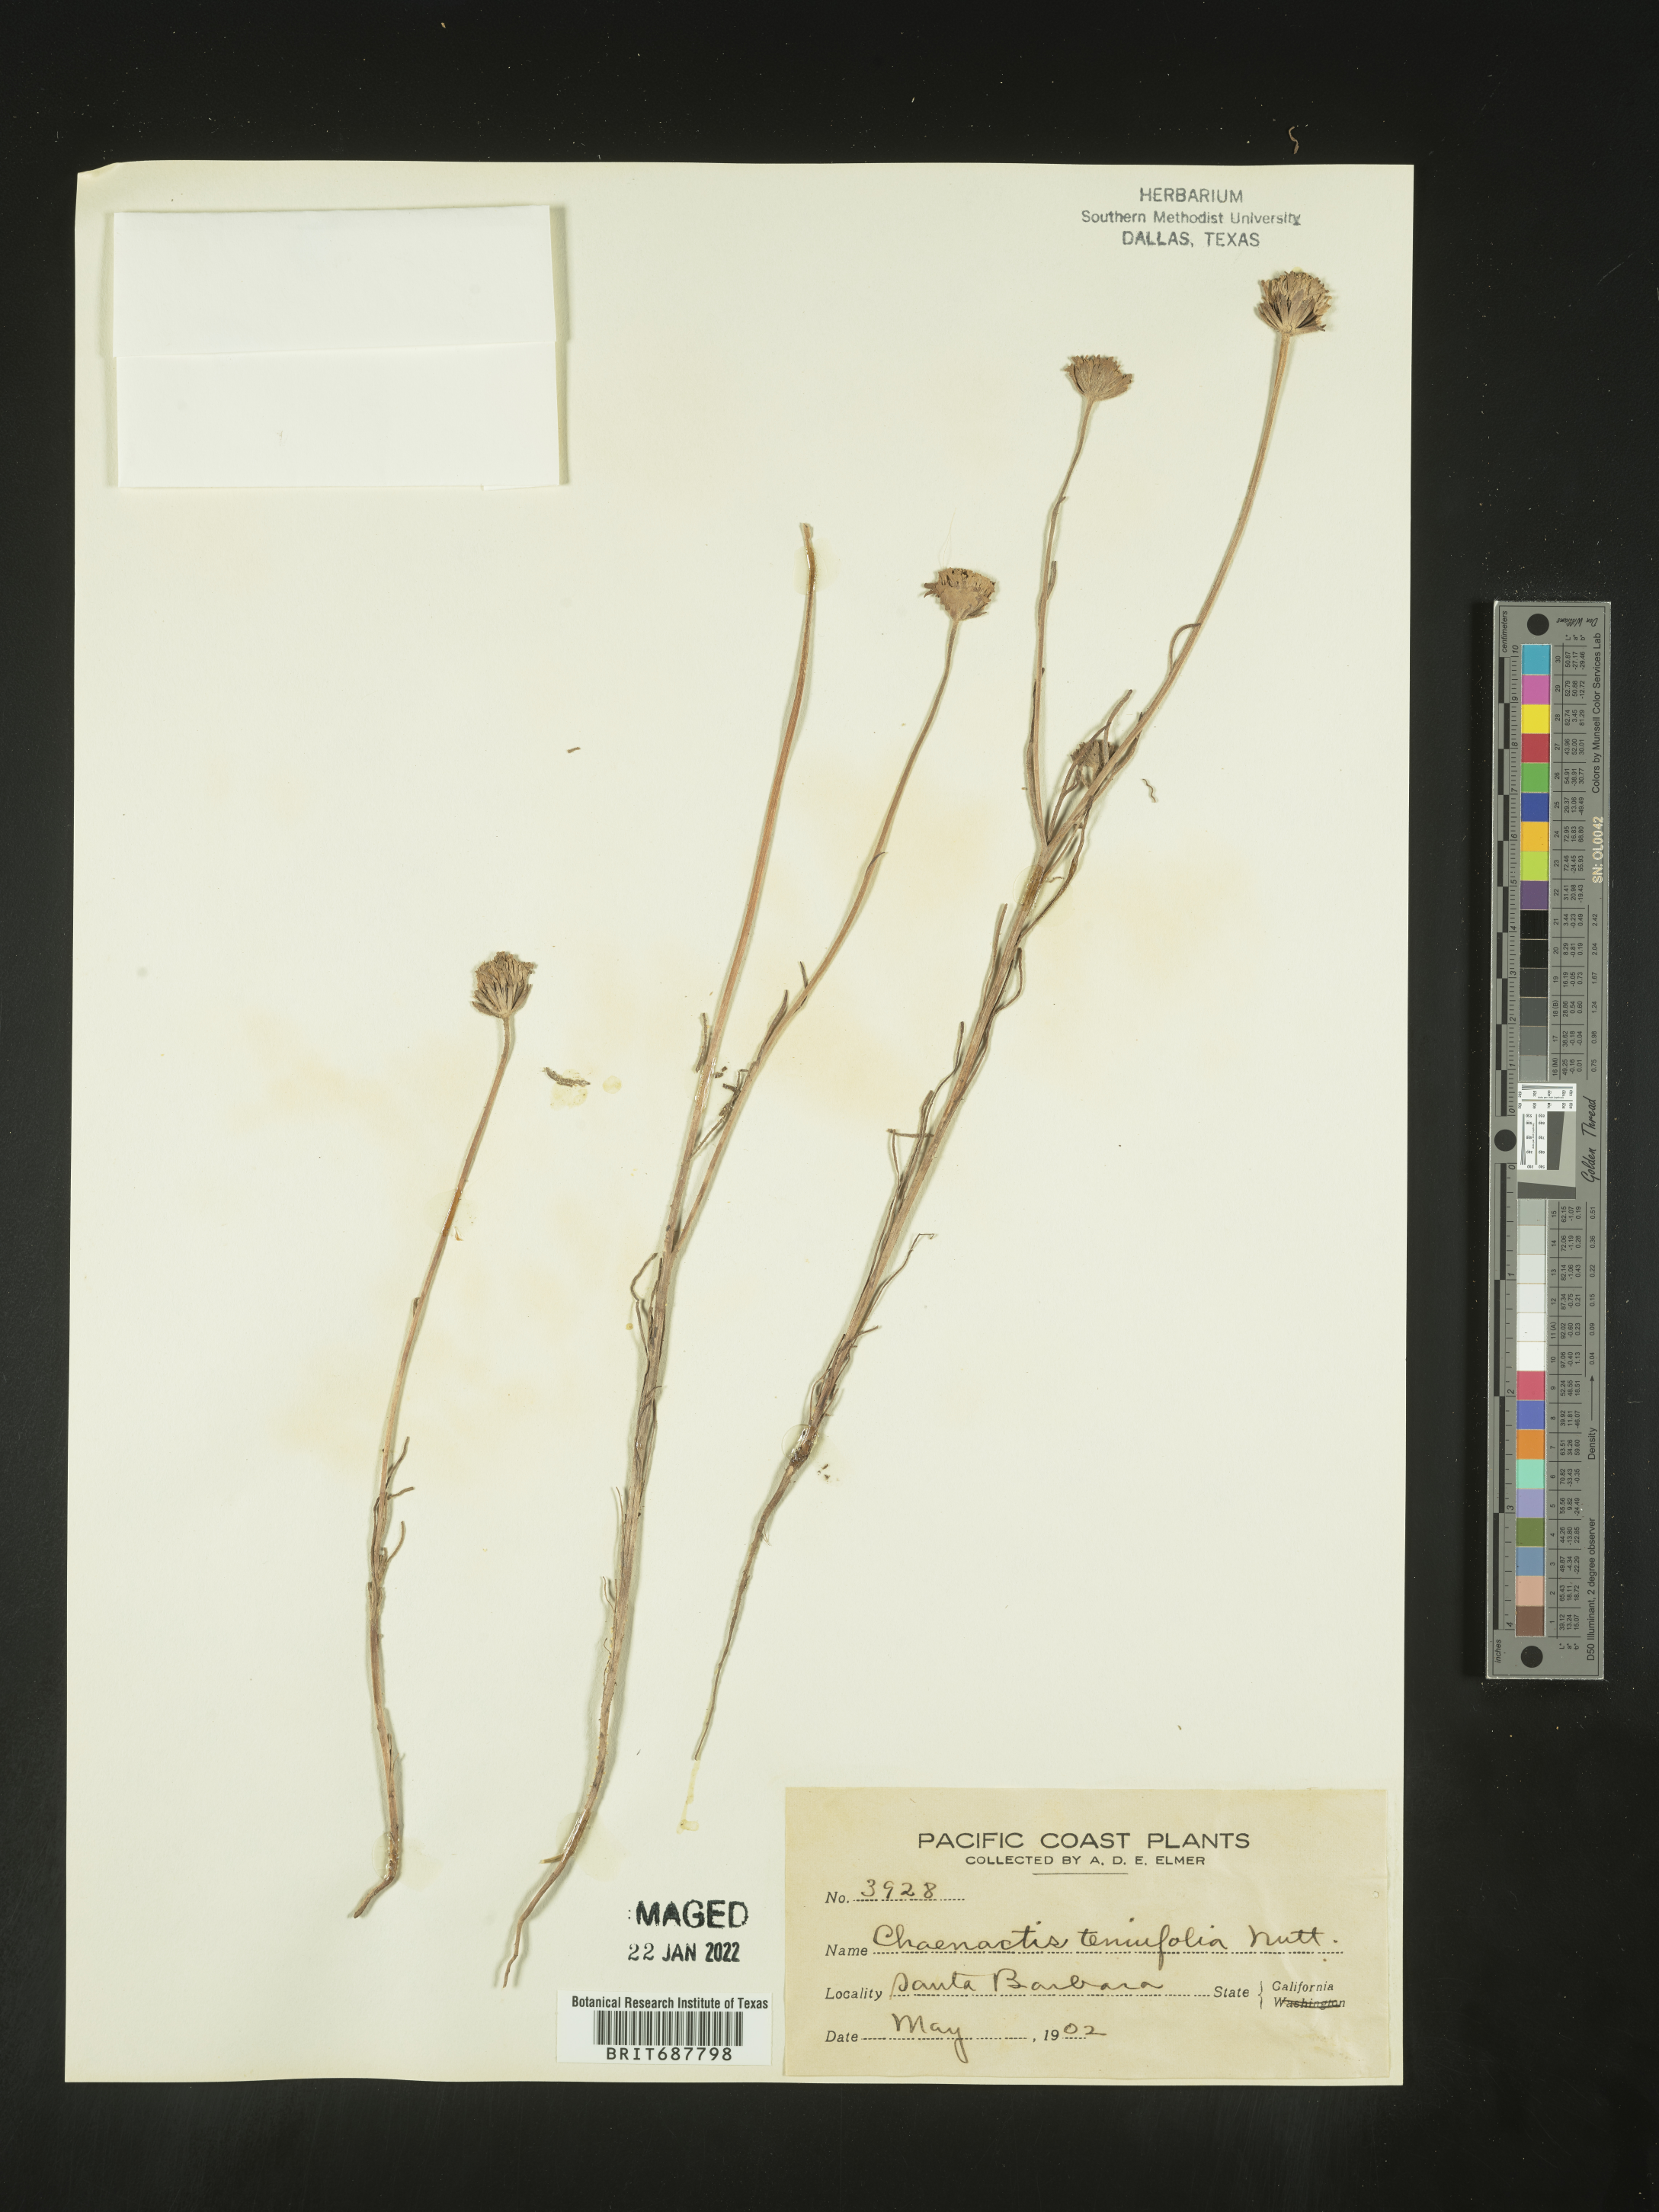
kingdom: Plantae
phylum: Tracheophyta
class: Magnoliopsida
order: Asterales
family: Asteraceae
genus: Chaenactis
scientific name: Chaenactis glabriuscula
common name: Yellow pincushion
